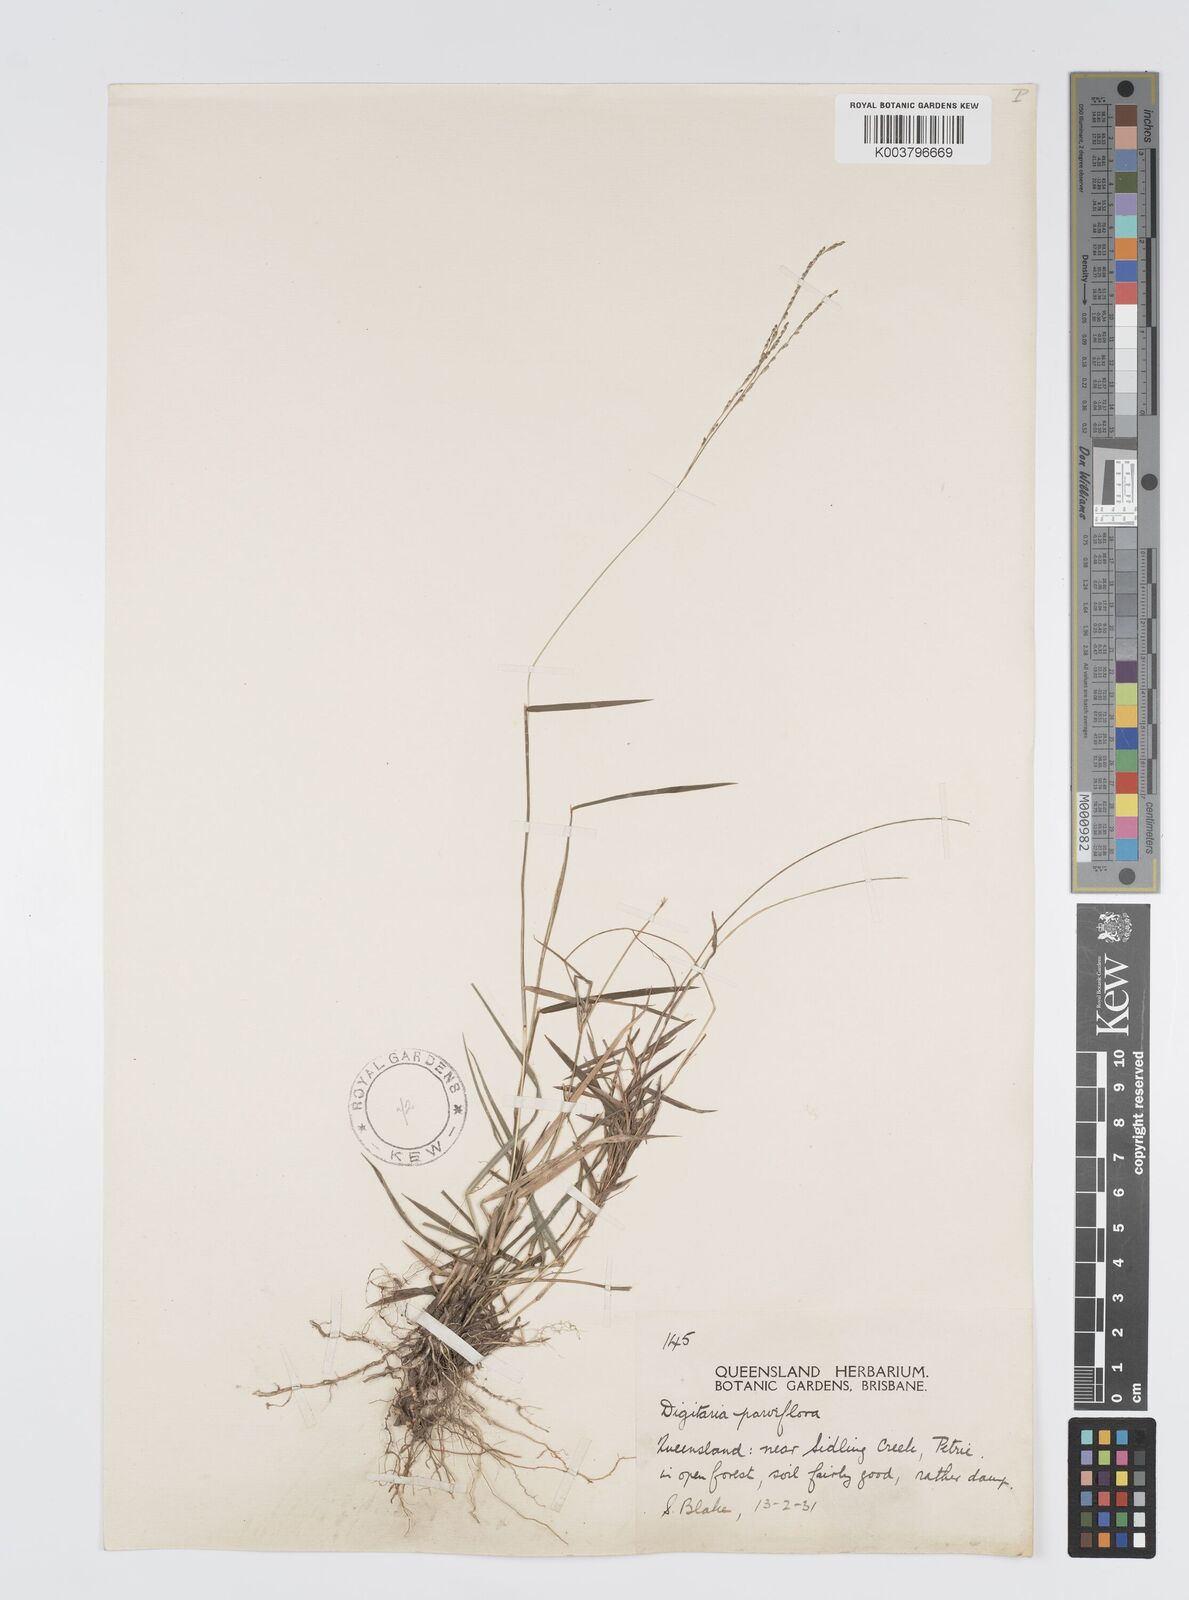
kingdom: Plantae
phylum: Tracheophyta
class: Liliopsida
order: Poales
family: Poaceae
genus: Digitaria
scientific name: Digitaria ramularis
